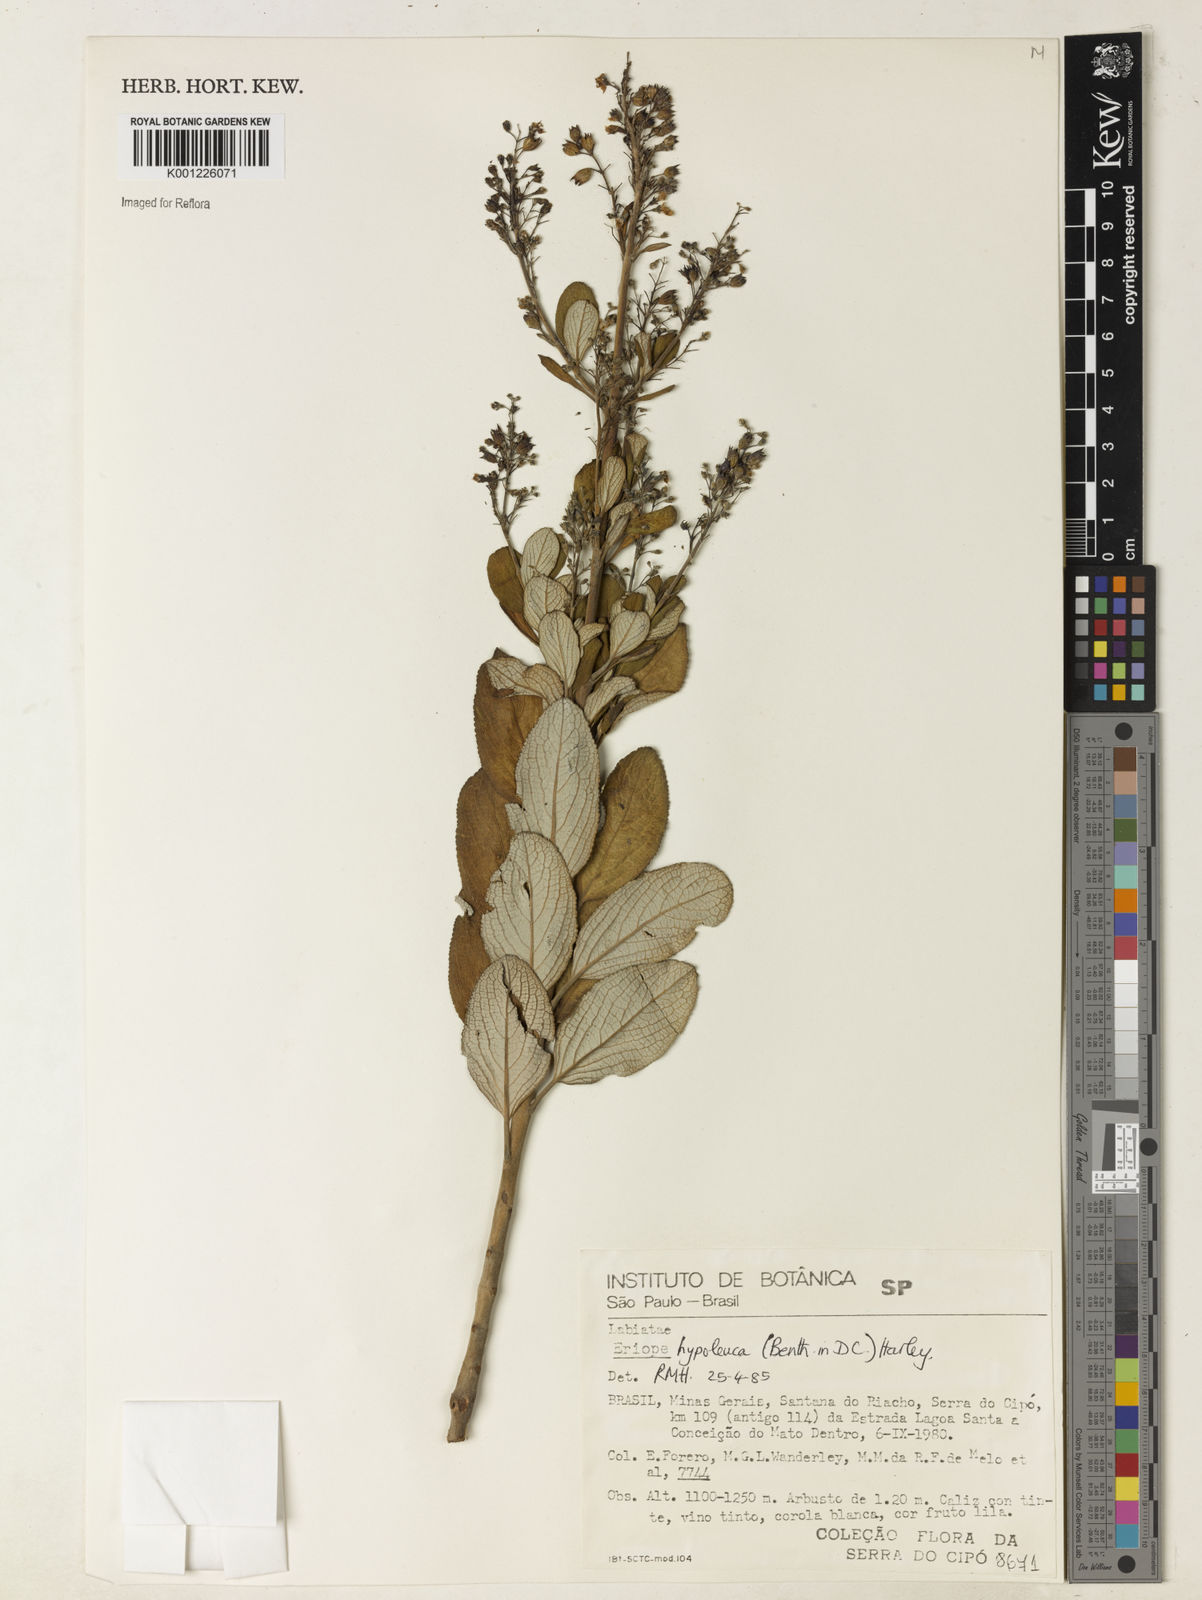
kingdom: Plantae
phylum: Tracheophyta
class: Magnoliopsida
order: Lamiales
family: Lamiaceae
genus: Eriope
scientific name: Eriope hypoleuca
